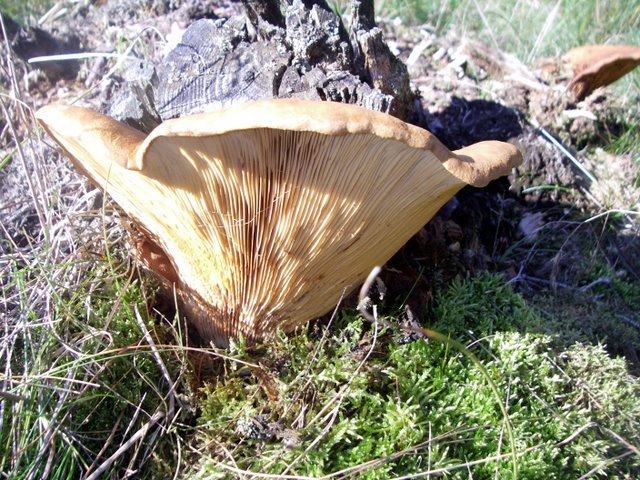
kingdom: Fungi
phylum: Basidiomycota
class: Agaricomycetes
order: Boletales
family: Tapinellaceae
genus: Tapinella
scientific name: Tapinella atrotomentosa
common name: sortfiltet viftesvamp
